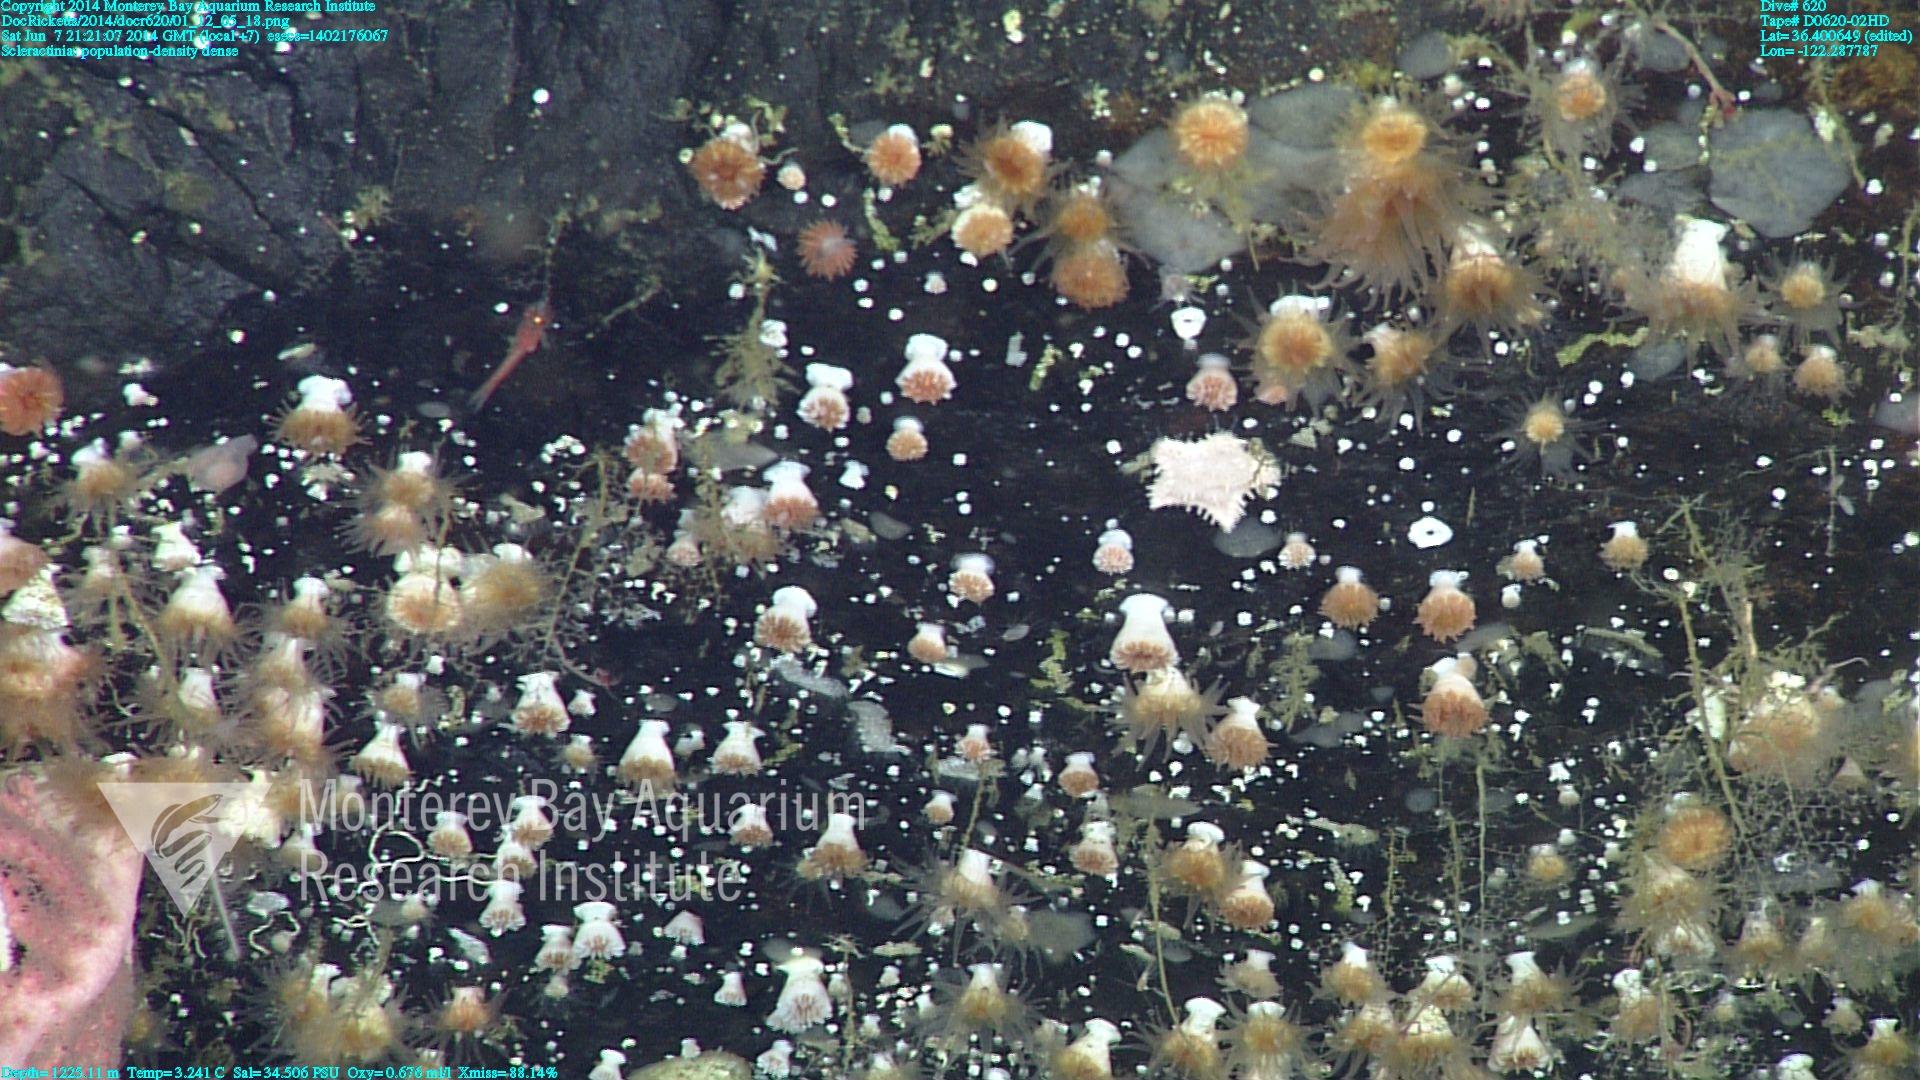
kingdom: Animalia
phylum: Cnidaria
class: Anthozoa
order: Scleractinia
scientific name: Scleractinia
